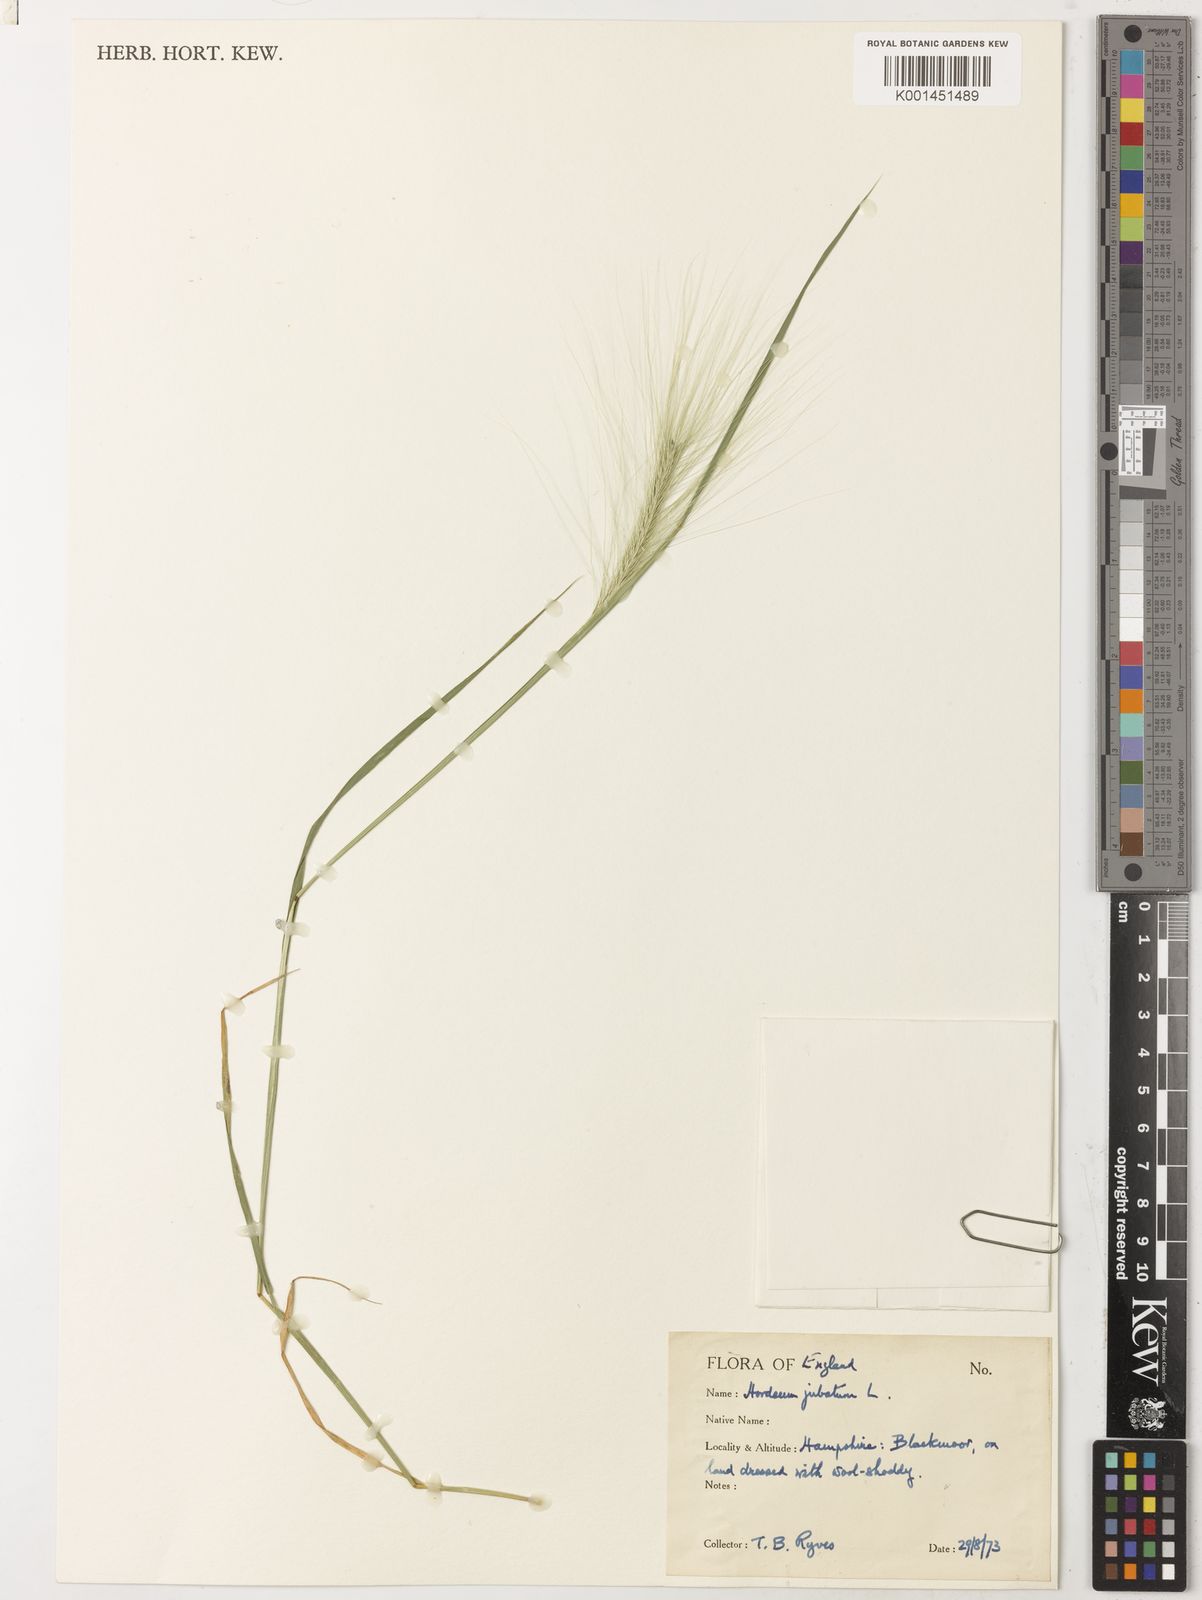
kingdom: Plantae
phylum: Tracheophyta
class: Liliopsida
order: Poales
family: Poaceae
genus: Hordeum
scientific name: Hordeum jubatum
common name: Foxtail barley
